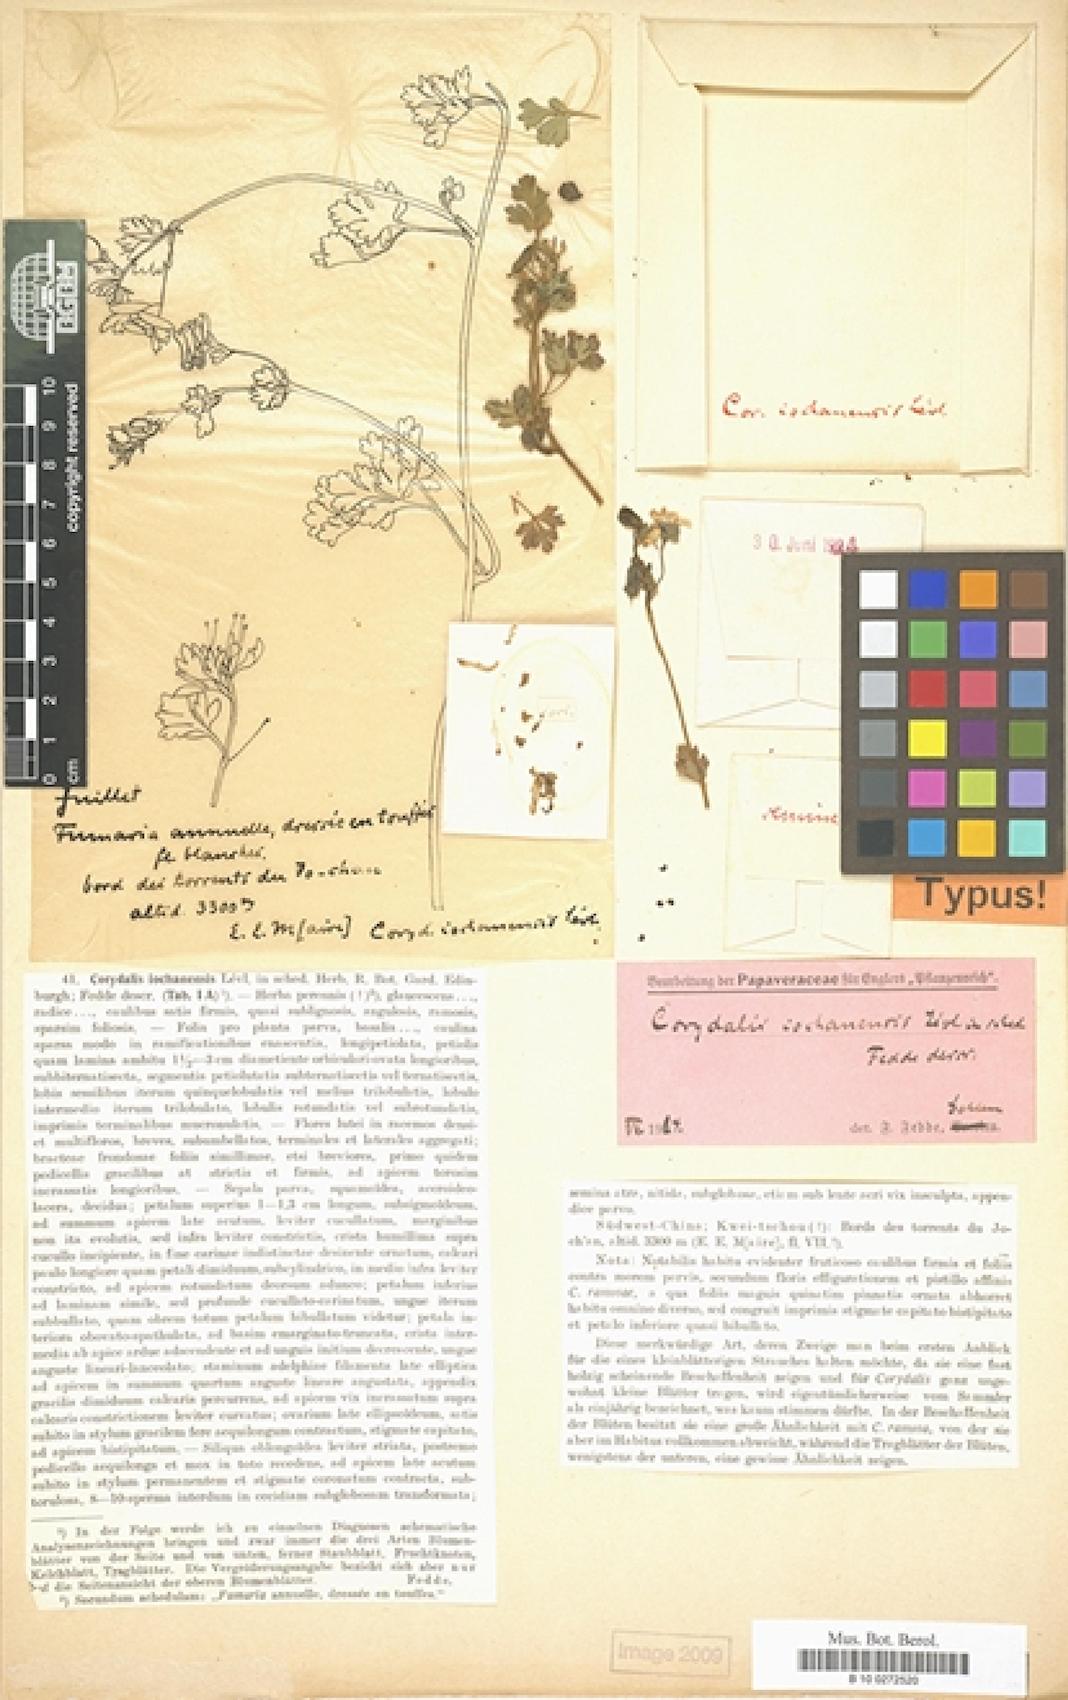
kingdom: Plantae
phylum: Tracheophyta
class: Magnoliopsida
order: Ranunculales
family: Papaveraceae
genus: Corydalis
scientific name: Corydalis iochanensis
